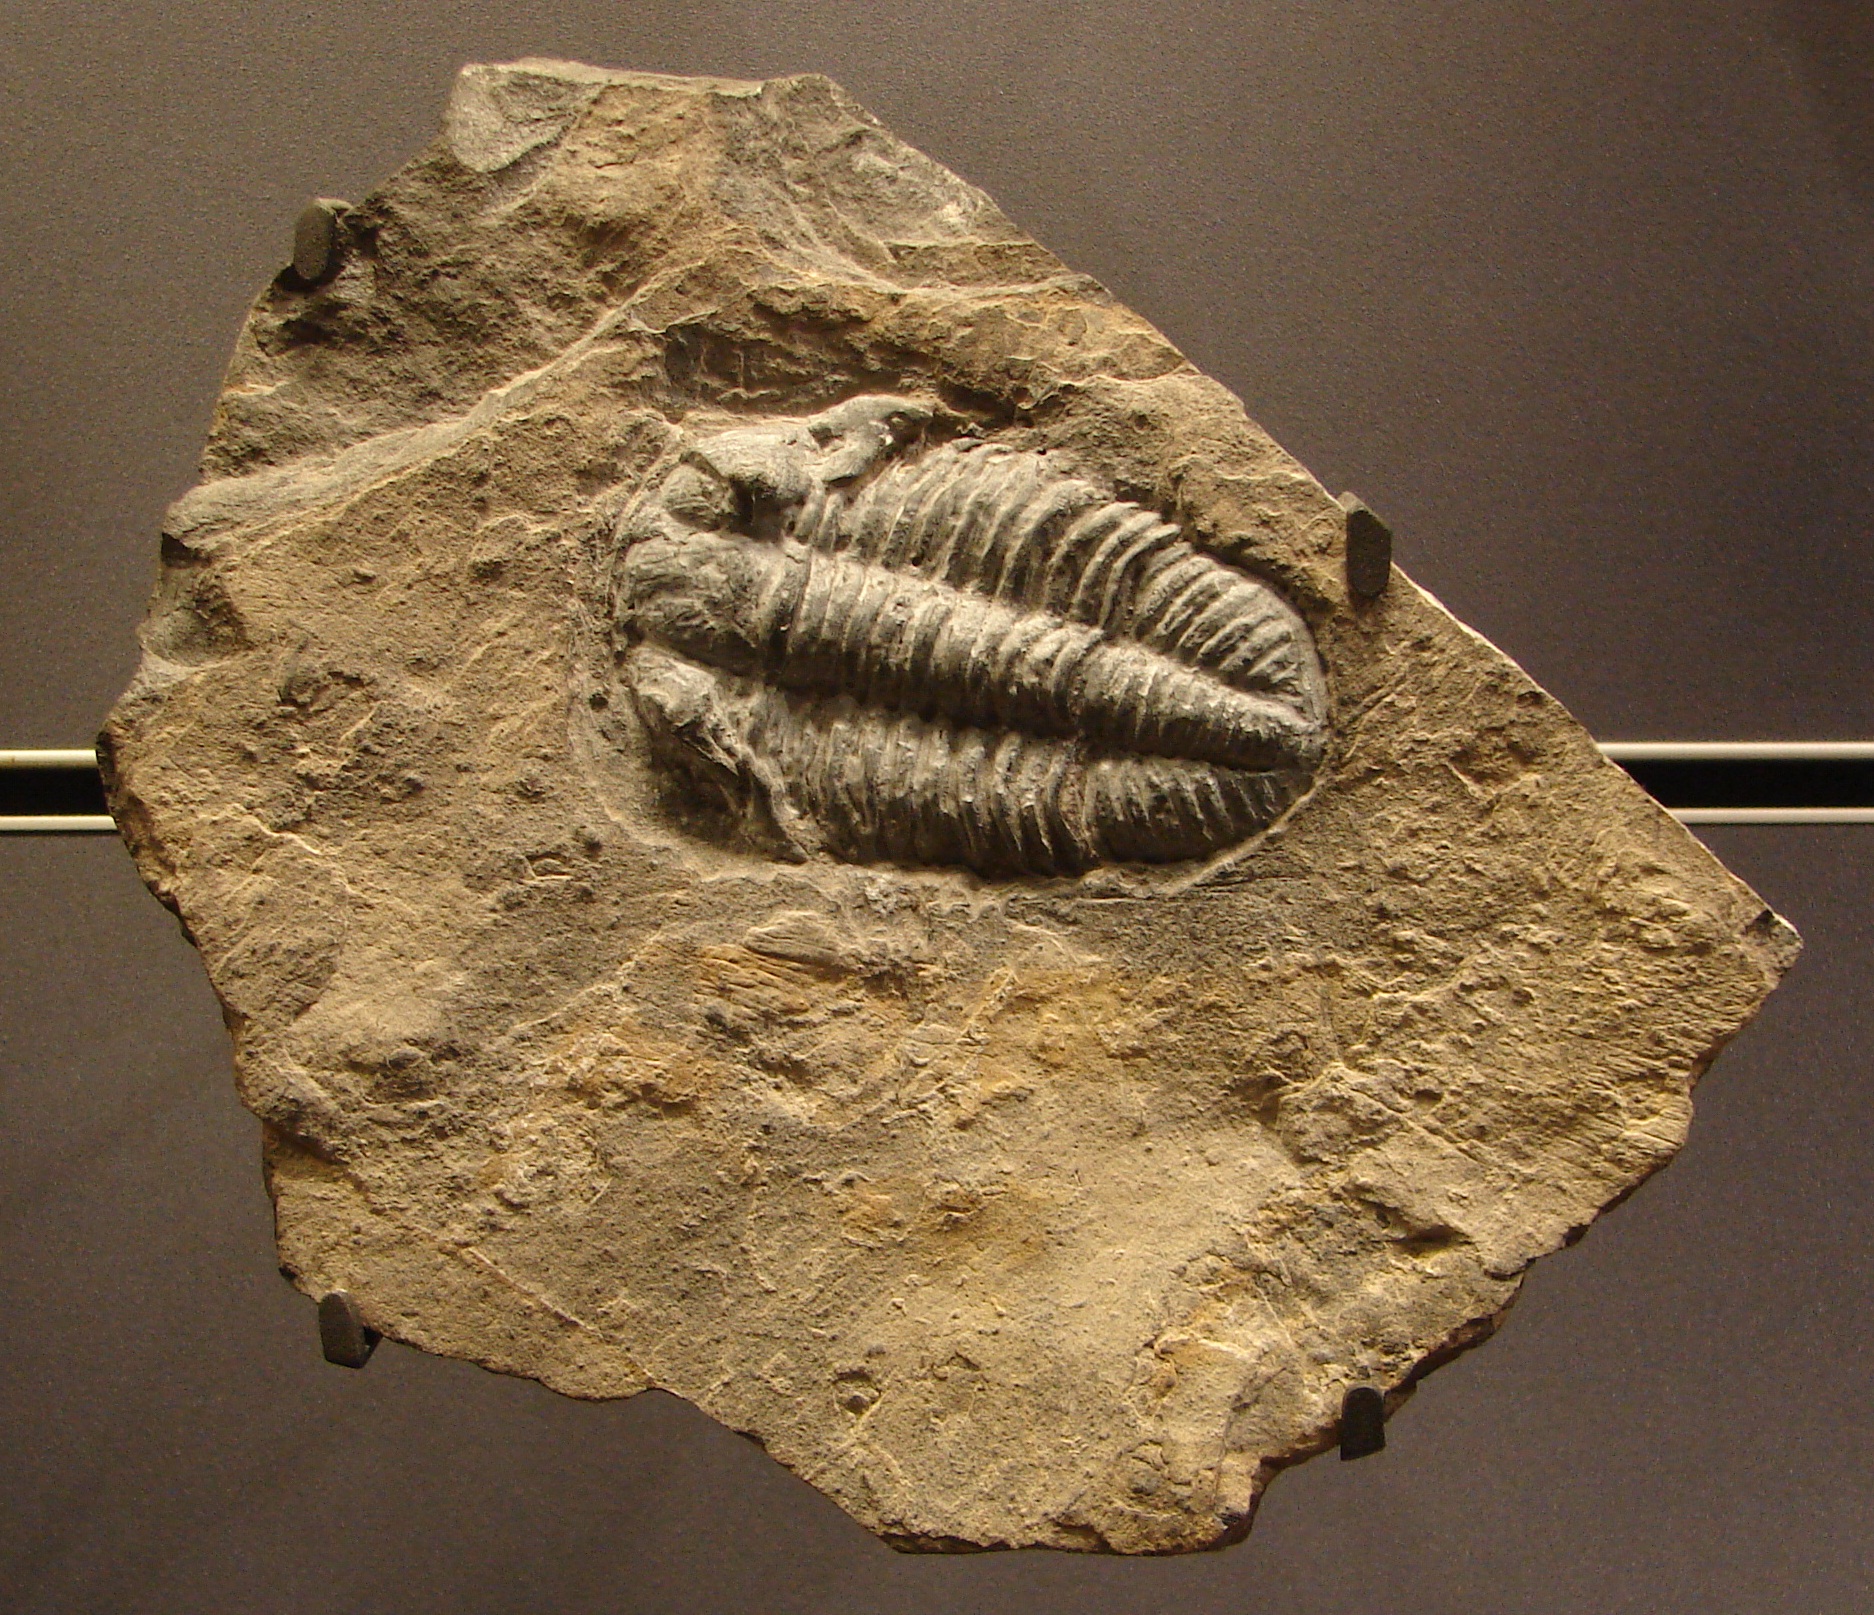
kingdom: Animalia
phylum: Arthropoda
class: Trilobita
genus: Norina
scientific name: Norina
